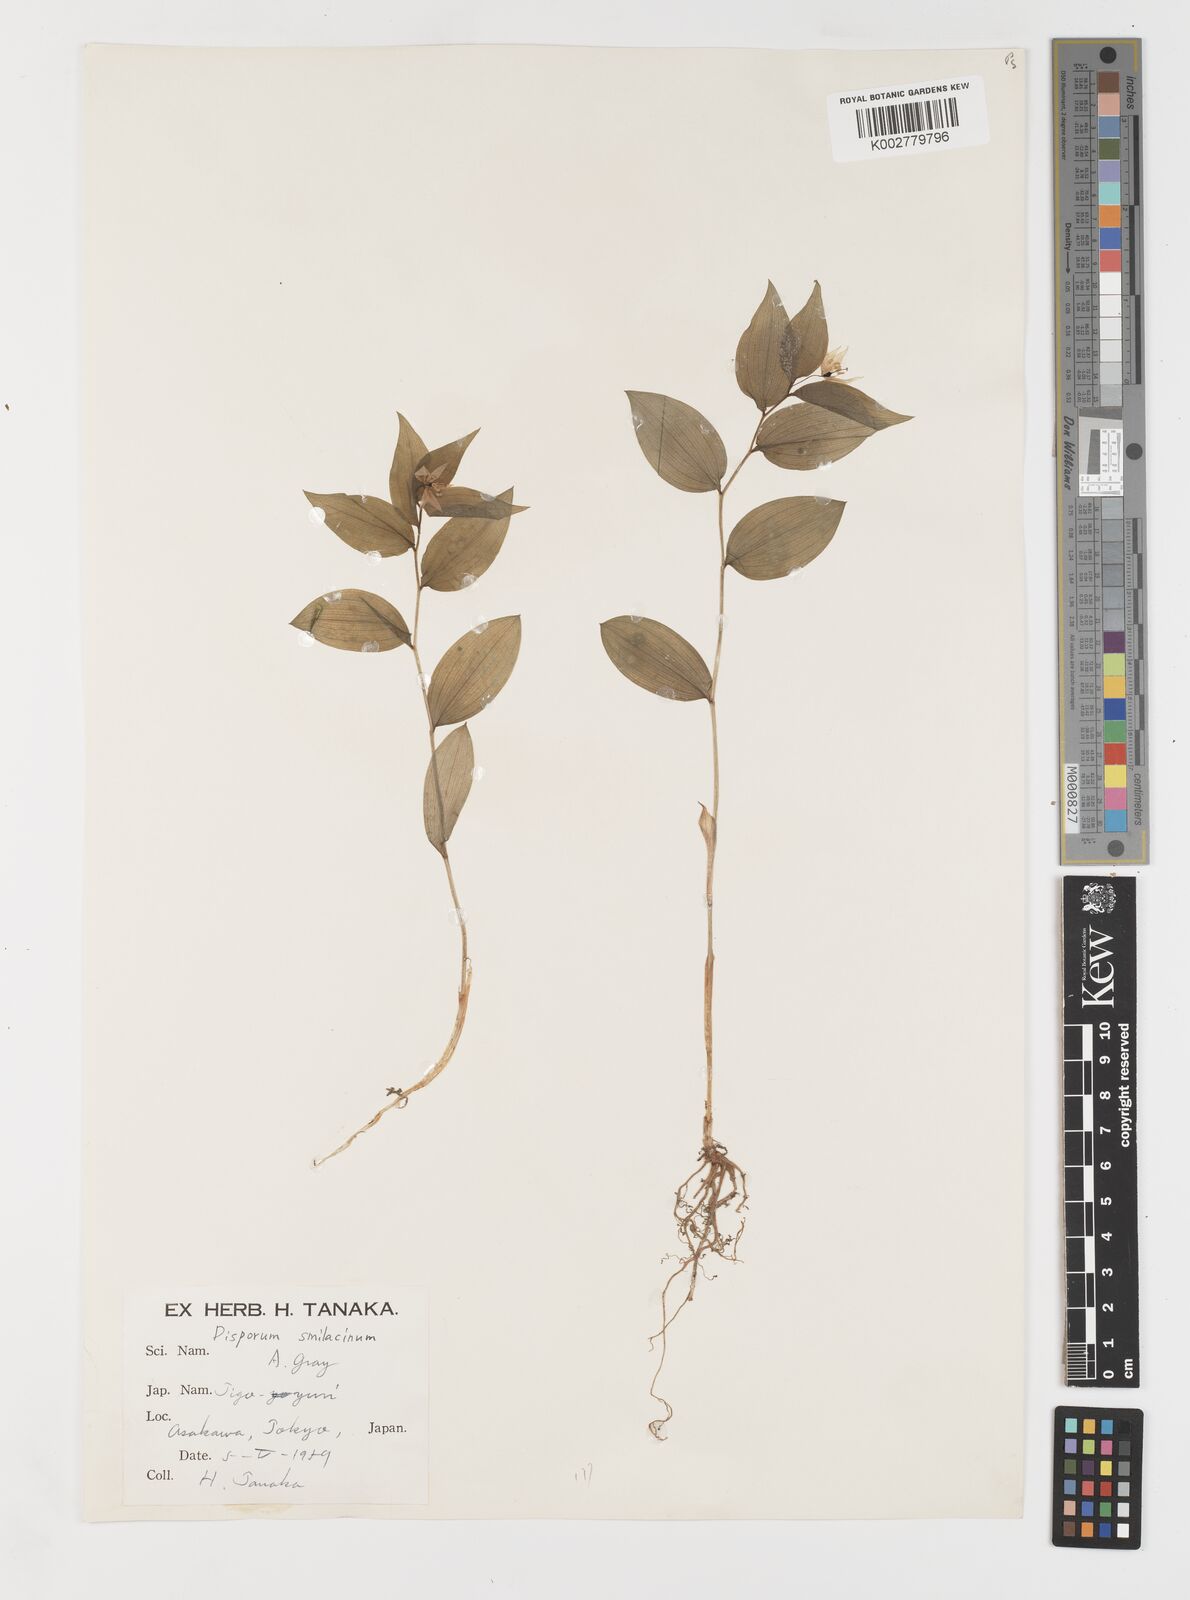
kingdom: Plantae
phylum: Tracheophyta
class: Liliopsida
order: Liliales
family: Colchicaceae
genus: Disporum
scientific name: Disporum smilacinum
